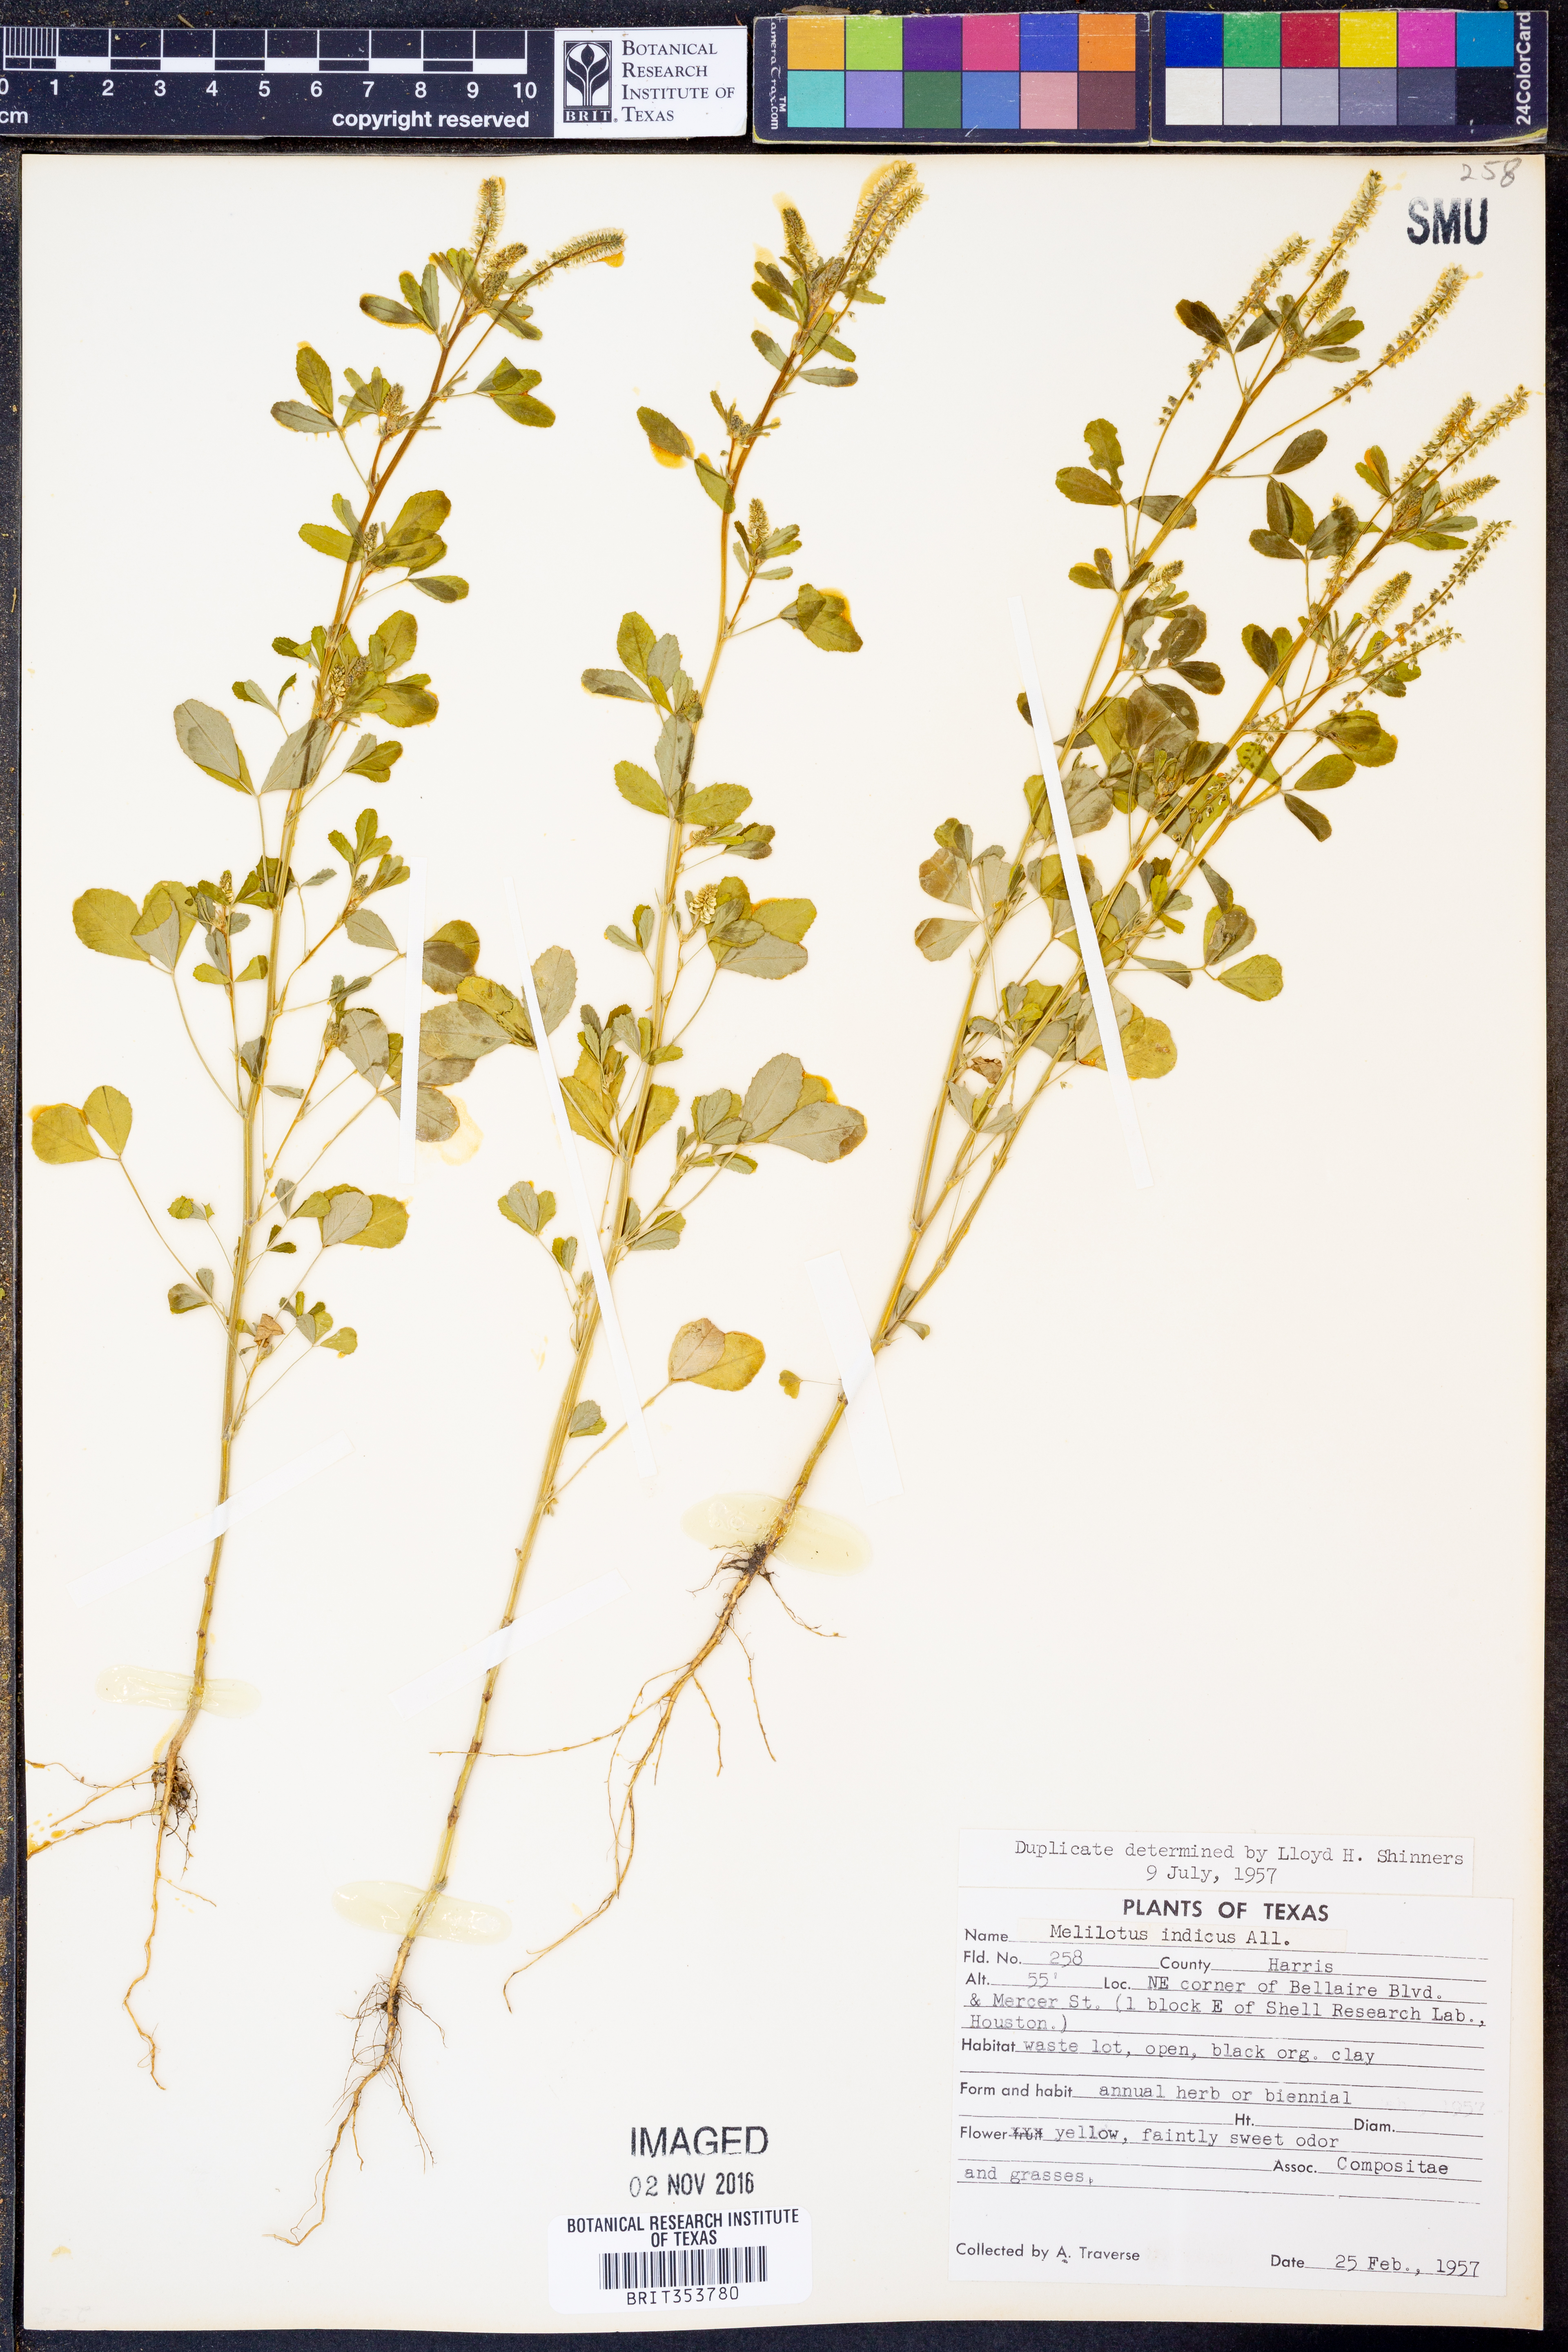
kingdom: Plantae
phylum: Tracheophyta
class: Magnoliopsida
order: Fabales
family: Fabaceae
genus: Melilotus
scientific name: Melilotus indicus
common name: Small melilot
